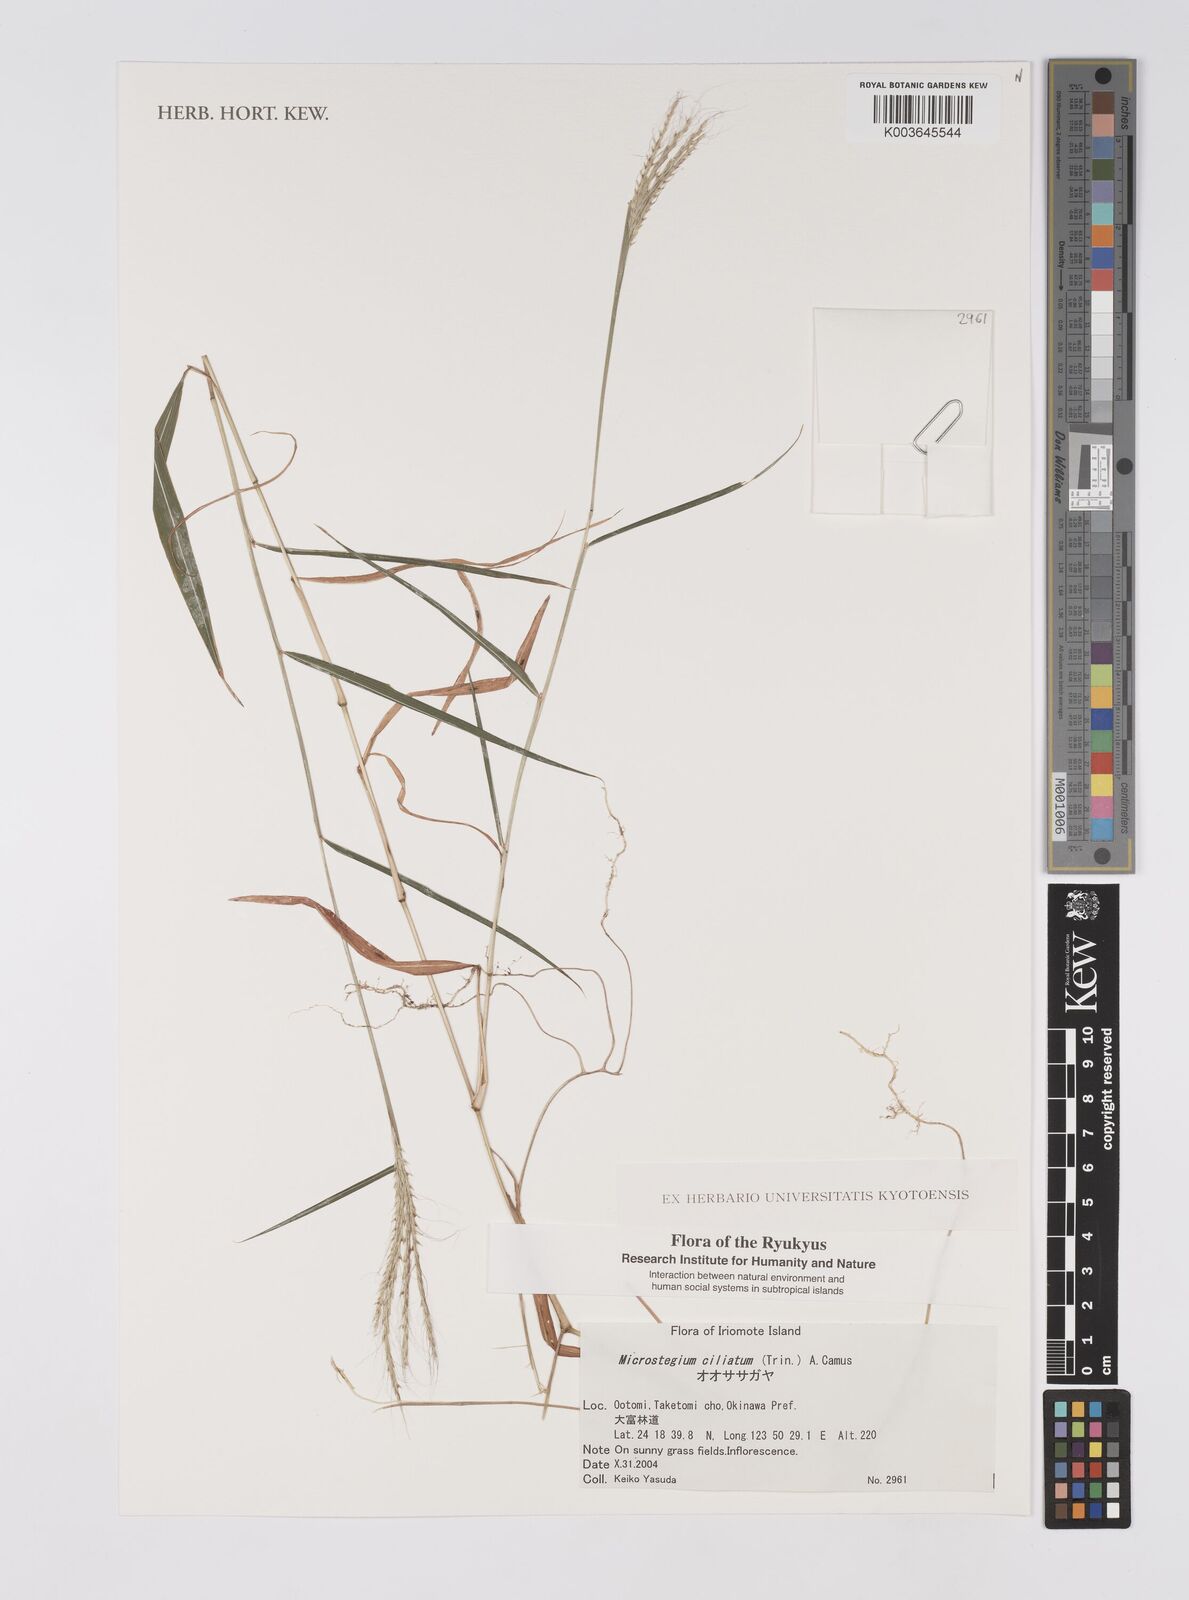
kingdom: Plantae
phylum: Tracheophyta
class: Liliopsida
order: Poales
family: Poaceae
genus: Microstegium
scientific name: Microstegium fasciculatum
